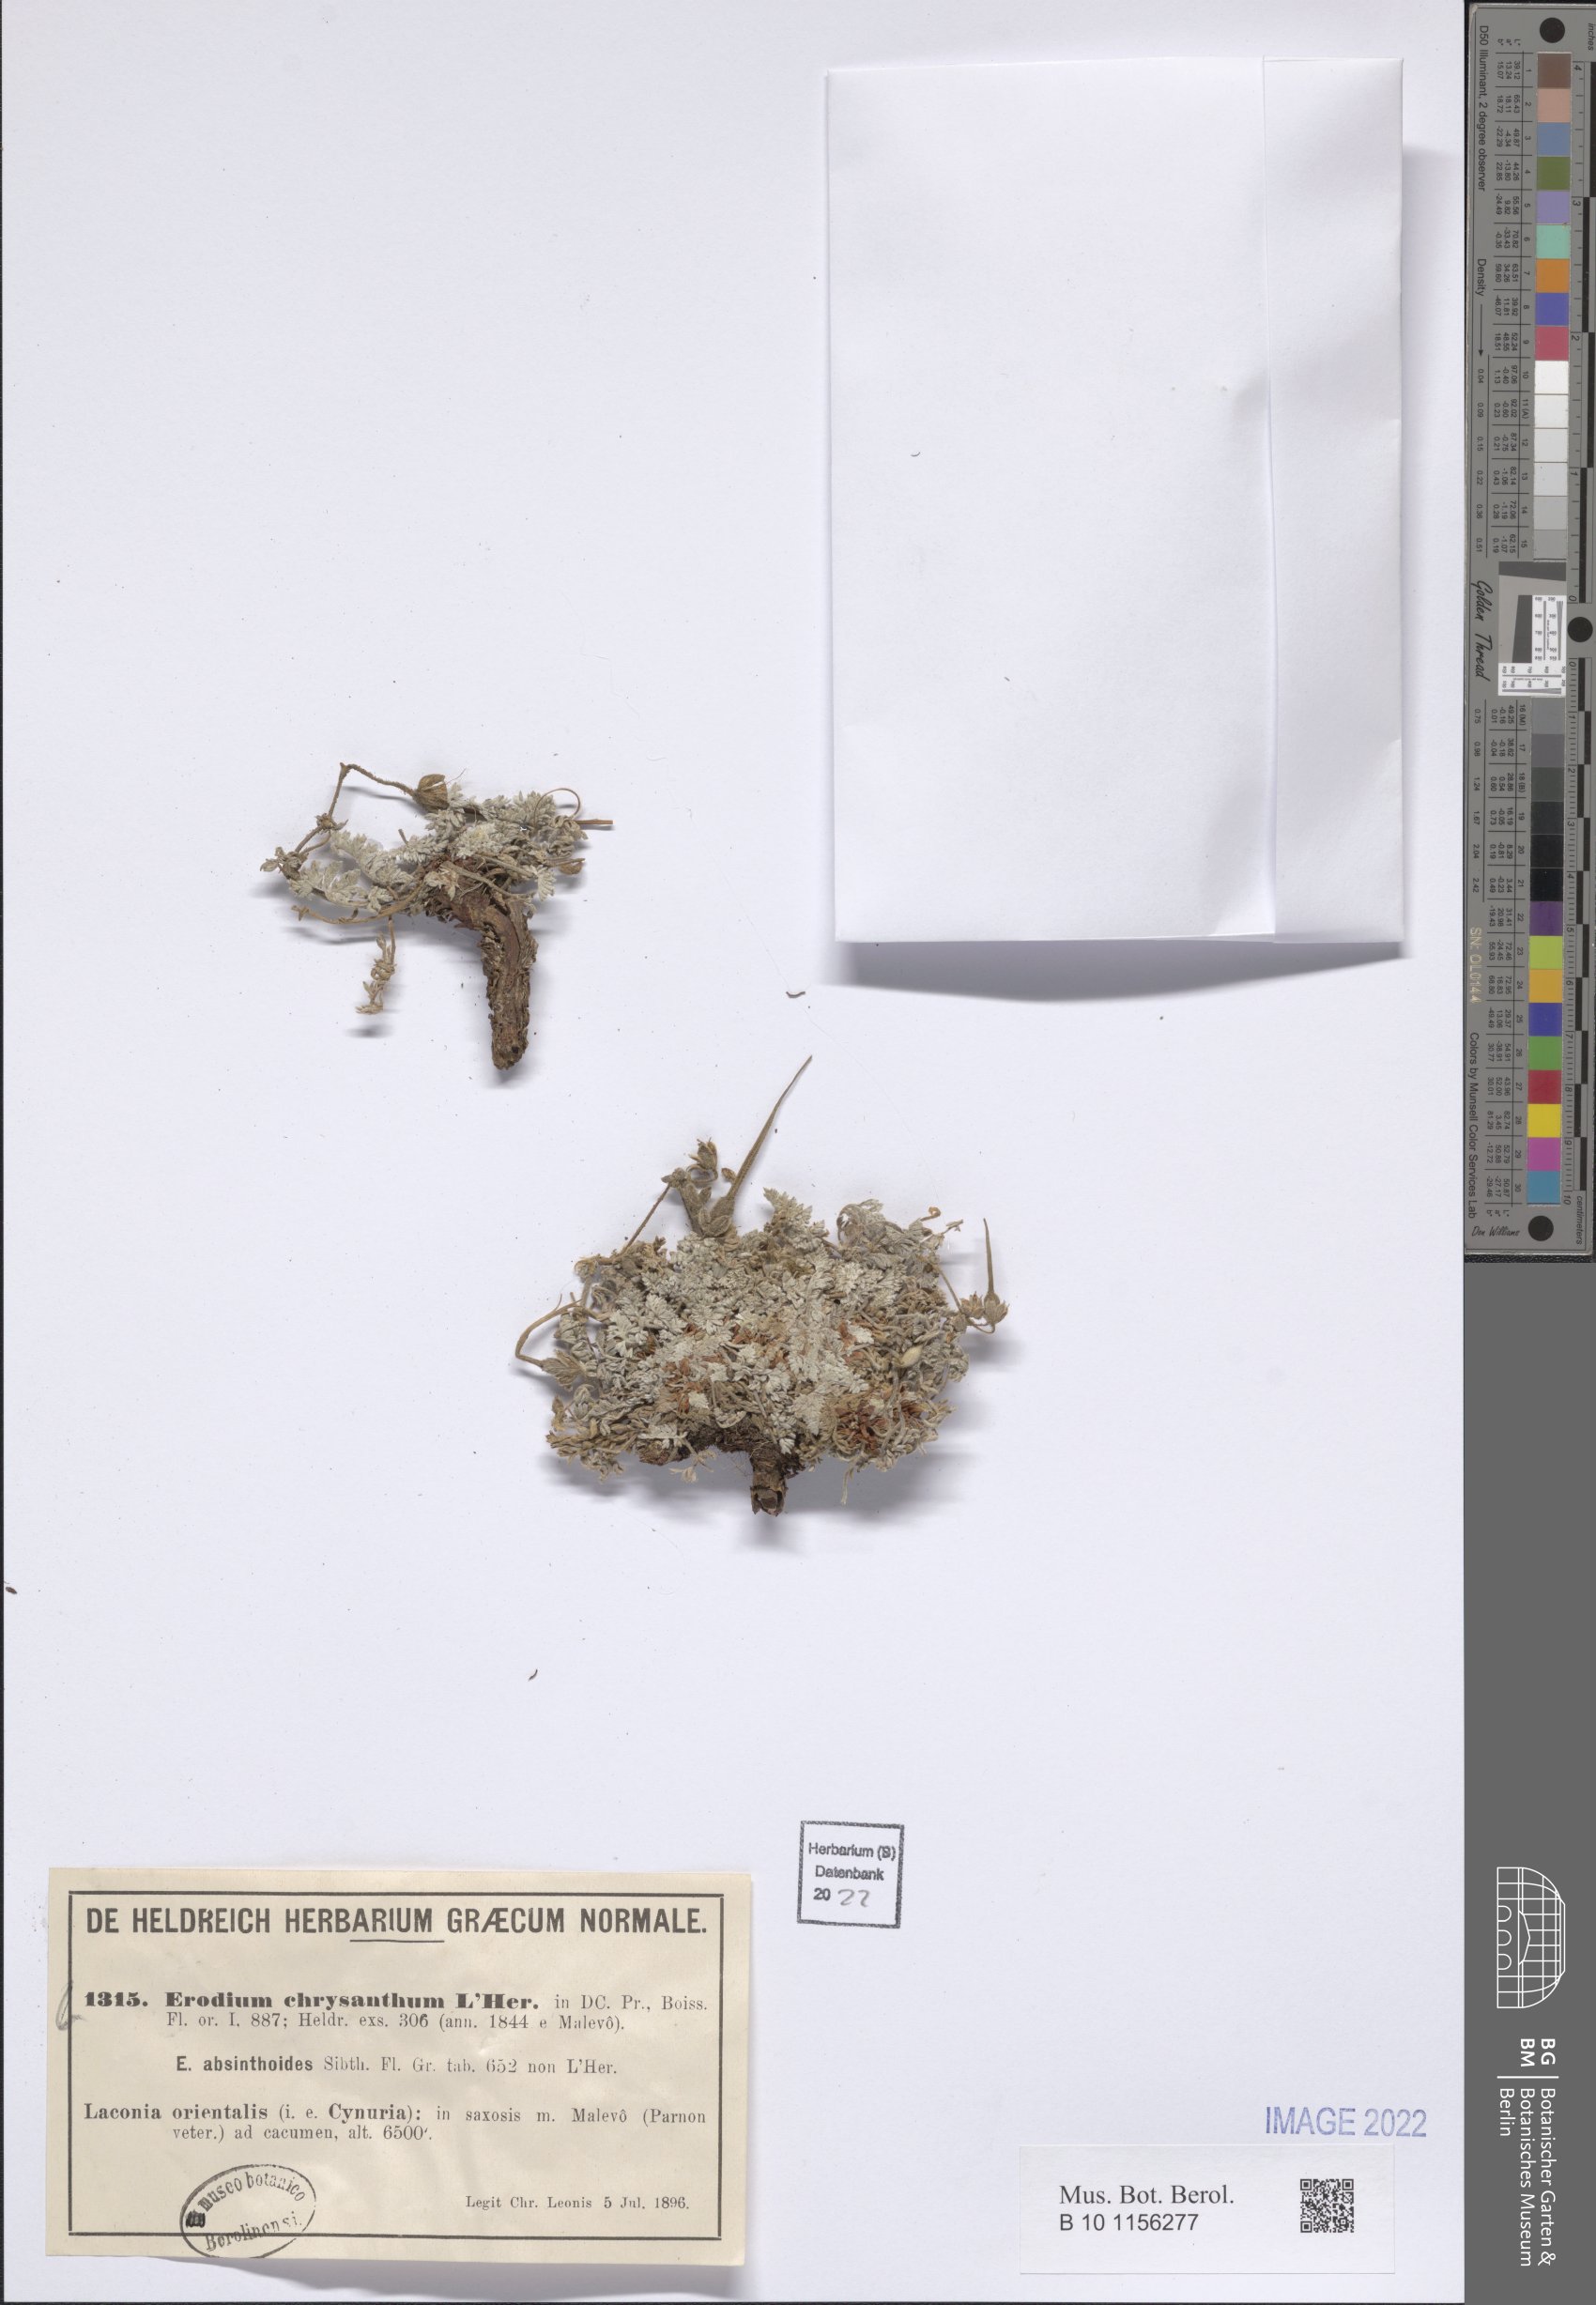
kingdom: Plantae
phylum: Tracheophyta
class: Magnoliopsida
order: Geraniales
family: Geraniaceae
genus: Erodium
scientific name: Erodium chrysanthum
